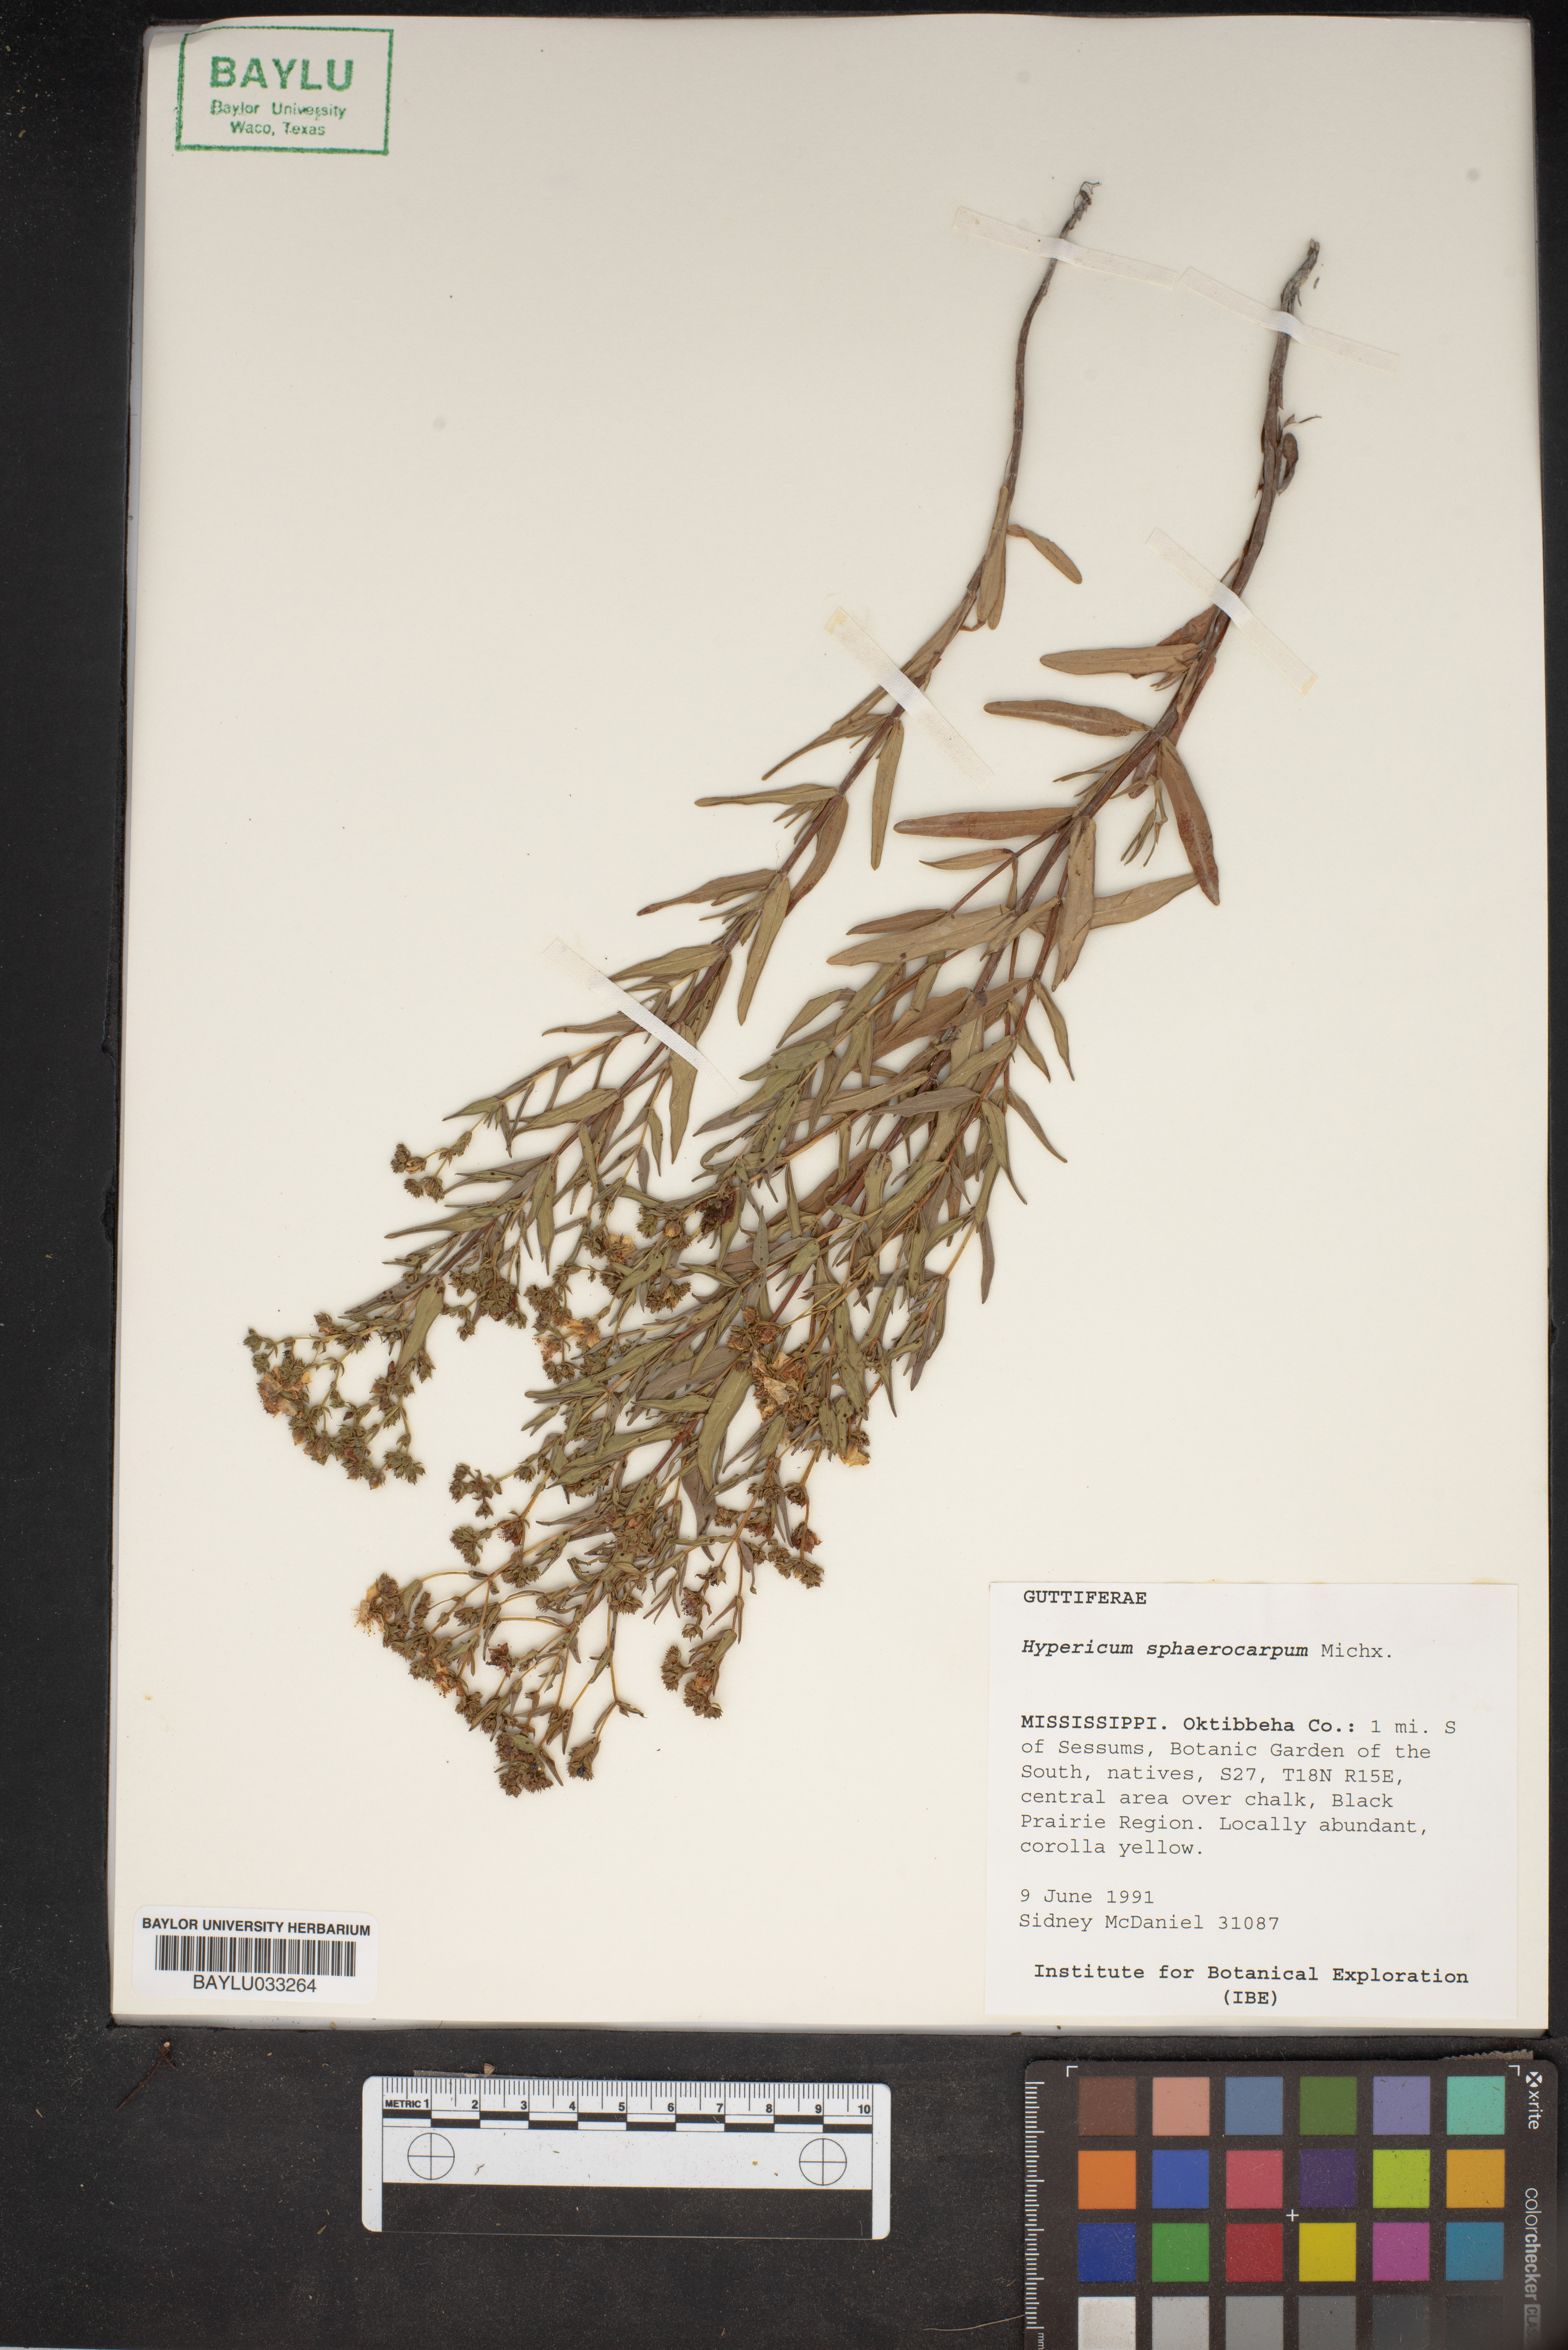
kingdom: Plantae
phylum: Tracheophyta
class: Magnoliopsida
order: Malpighiales
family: Hypericaceae
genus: Hypericum
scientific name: Hypericum sphaerocarpum
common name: Round-fruited st. john's-wort
